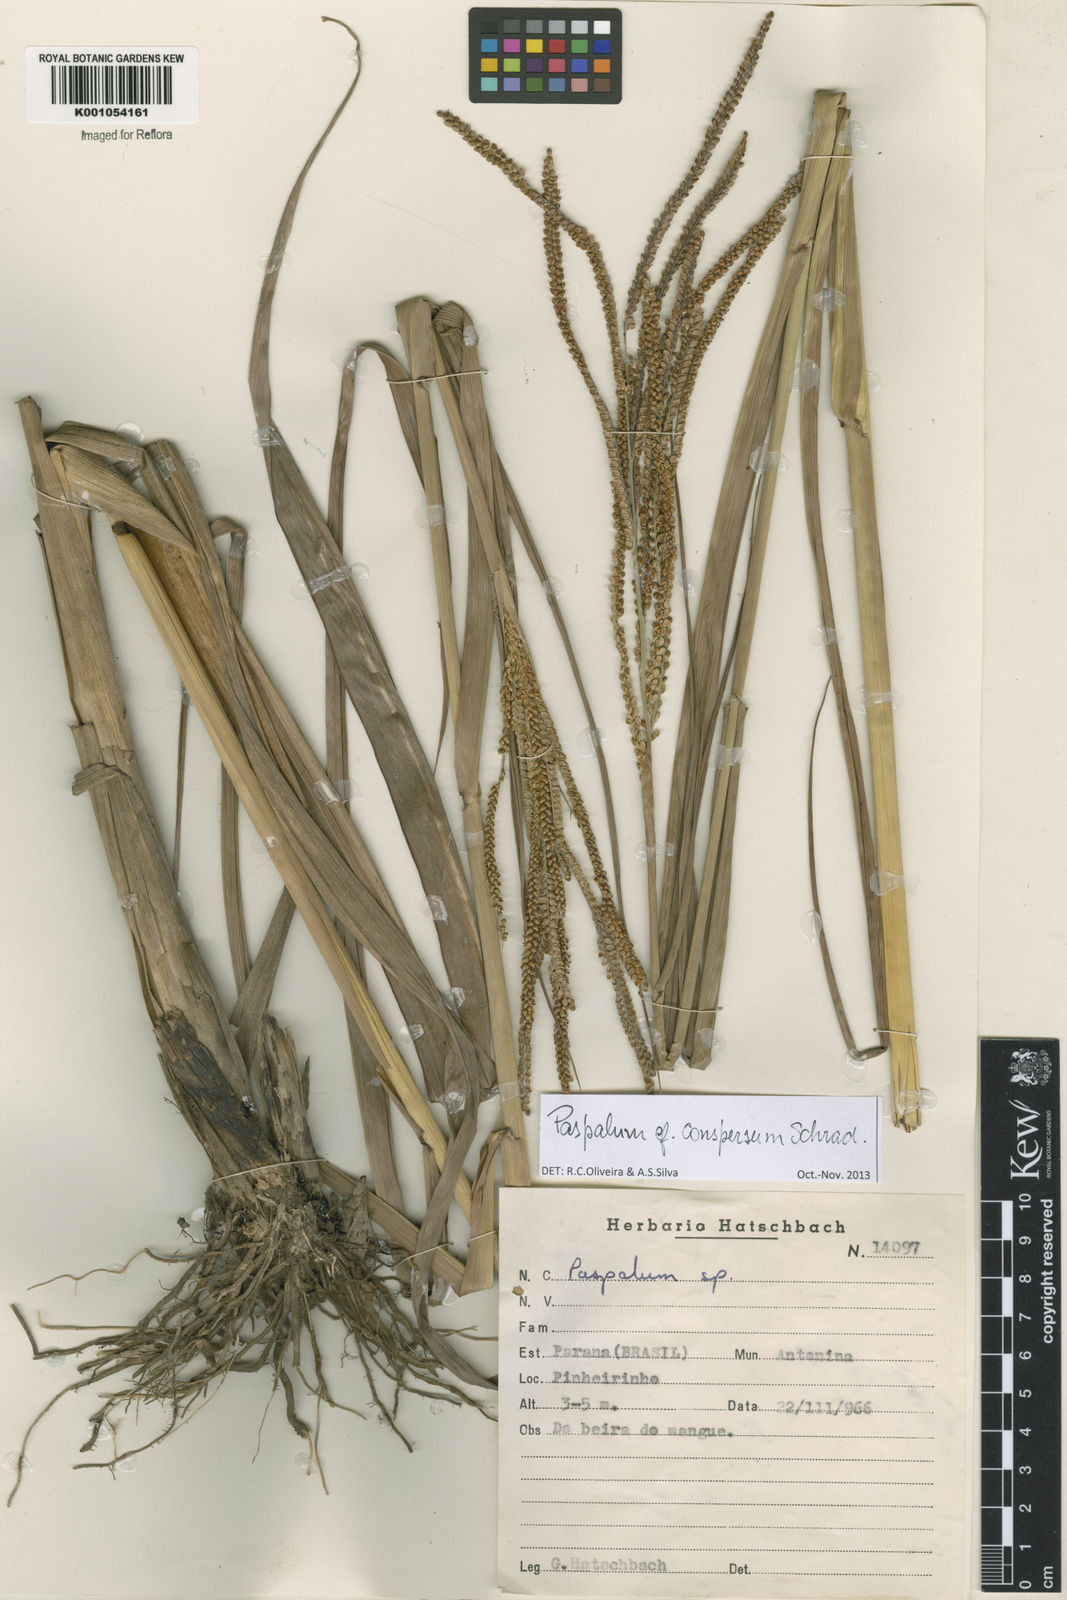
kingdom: Plantae
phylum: Tracheophyta
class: Liliopsida
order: Poales
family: Poaceae
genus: Paspalum
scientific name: Paspalum conspersum
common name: Scattered paspalum
